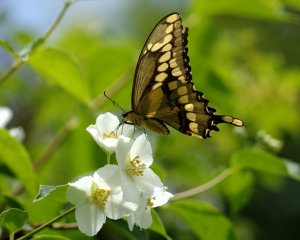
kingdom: Animalia
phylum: Arthropoda
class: Insecta
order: Lepidoptera
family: Papilionidae
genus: Papilio
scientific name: Papilio cresphontes
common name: Eastern Giant Swallowtail
